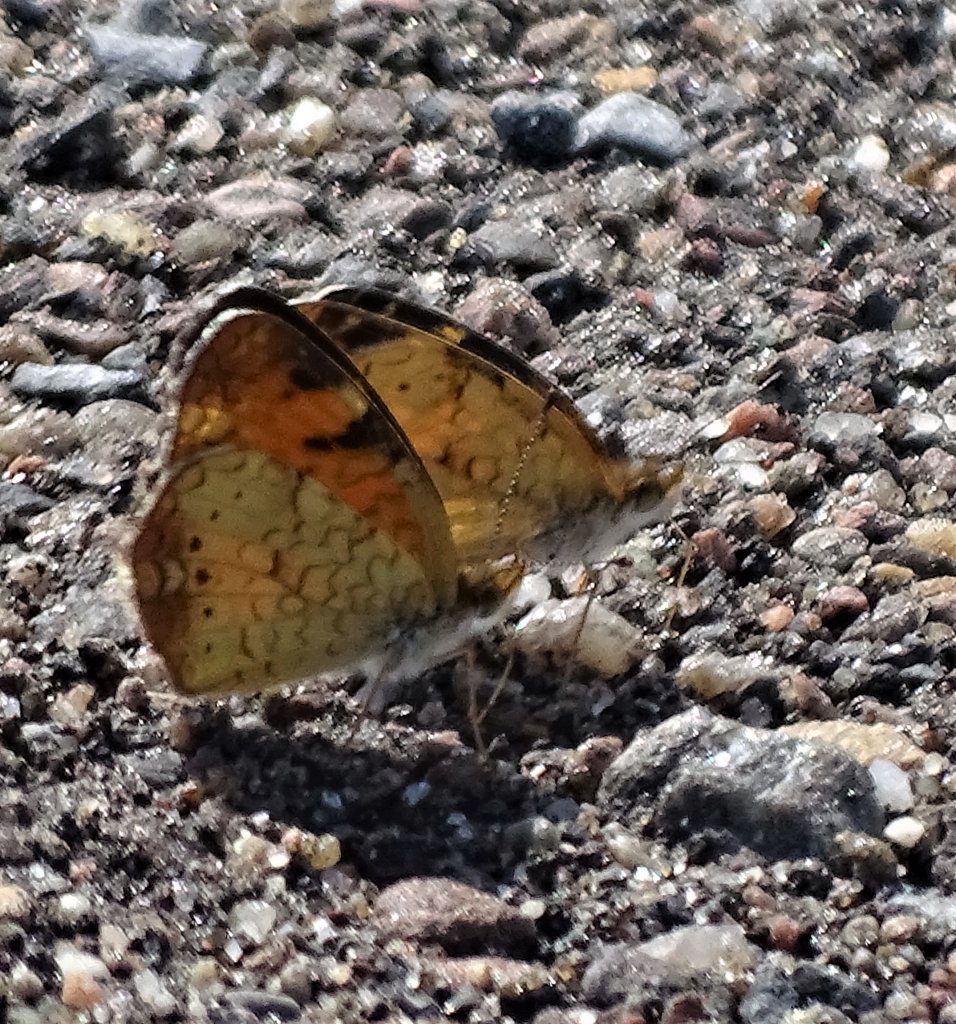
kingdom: Animalia
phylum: Arthropoda
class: Insecta
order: Lepidoptera
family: Nymphalidae
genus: Phyciodes
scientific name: Phyciodes
